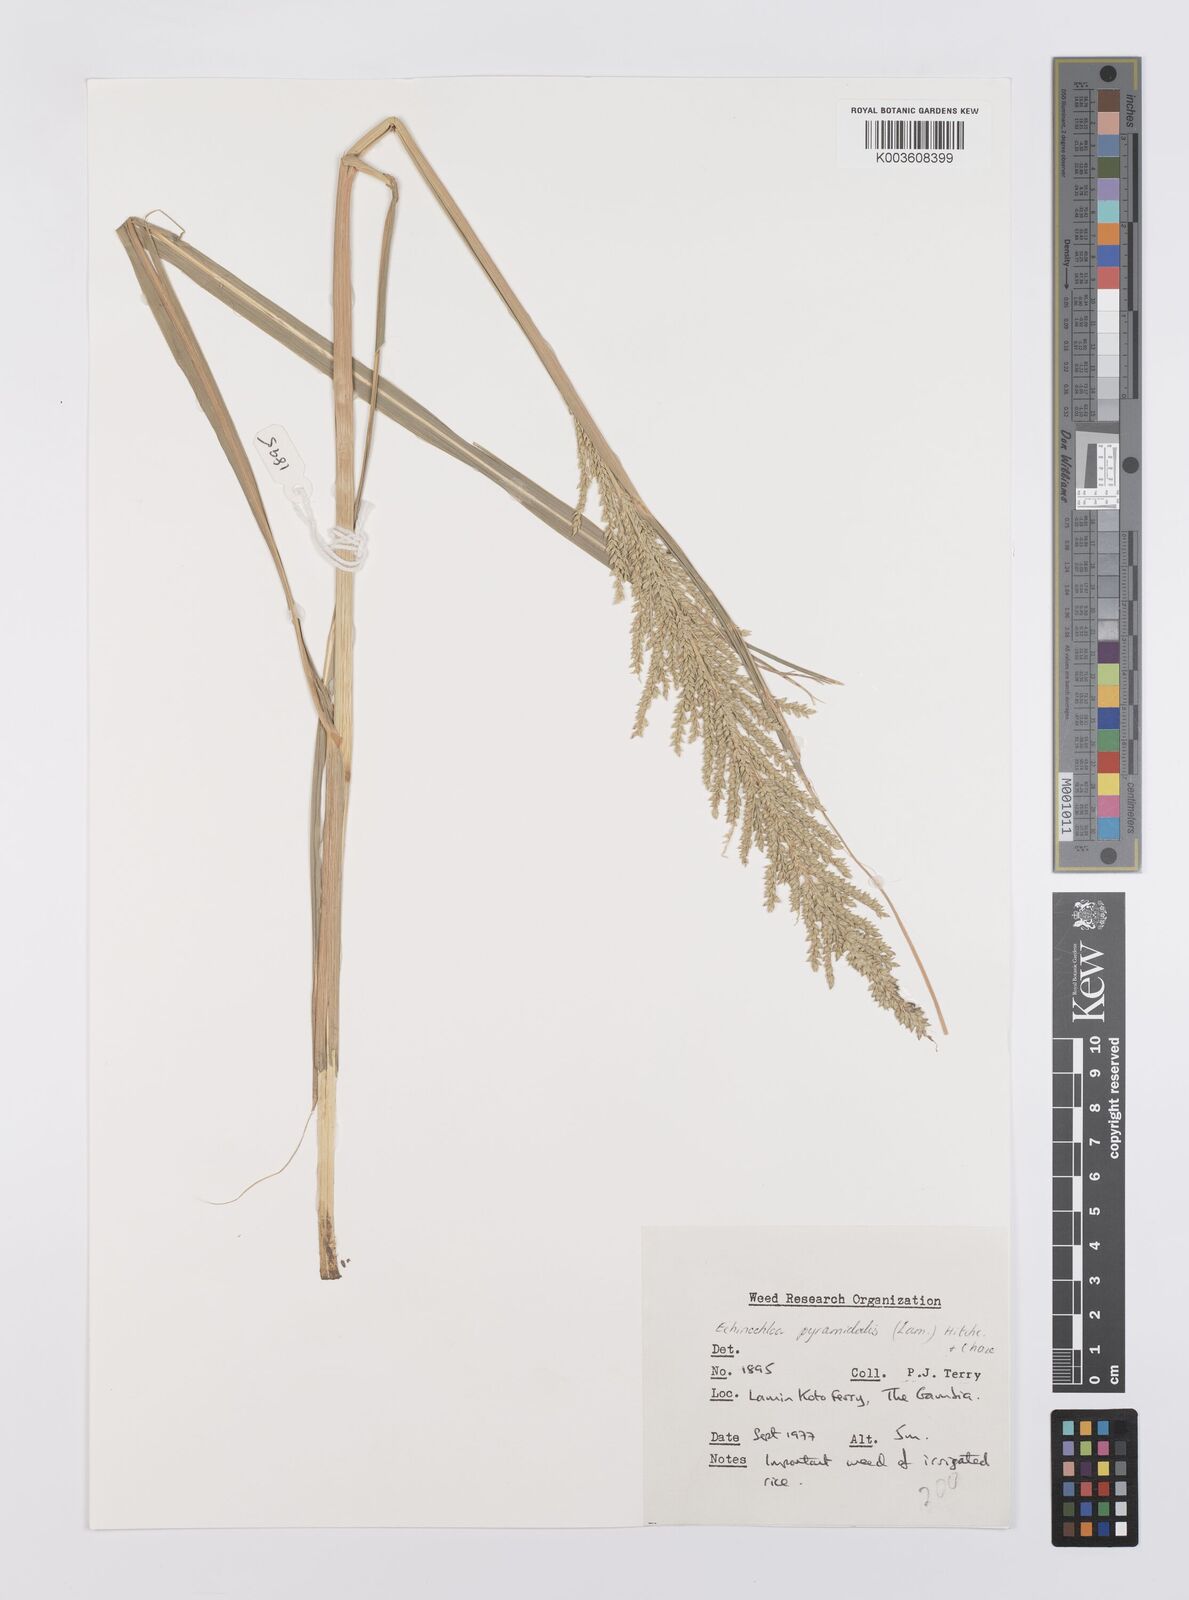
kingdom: Plantae
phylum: Tracheophyta
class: Liliopsida
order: Poales
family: Poaceae
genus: Echinochloa
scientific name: Echinochloa pyramidalis
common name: Antelope grass
